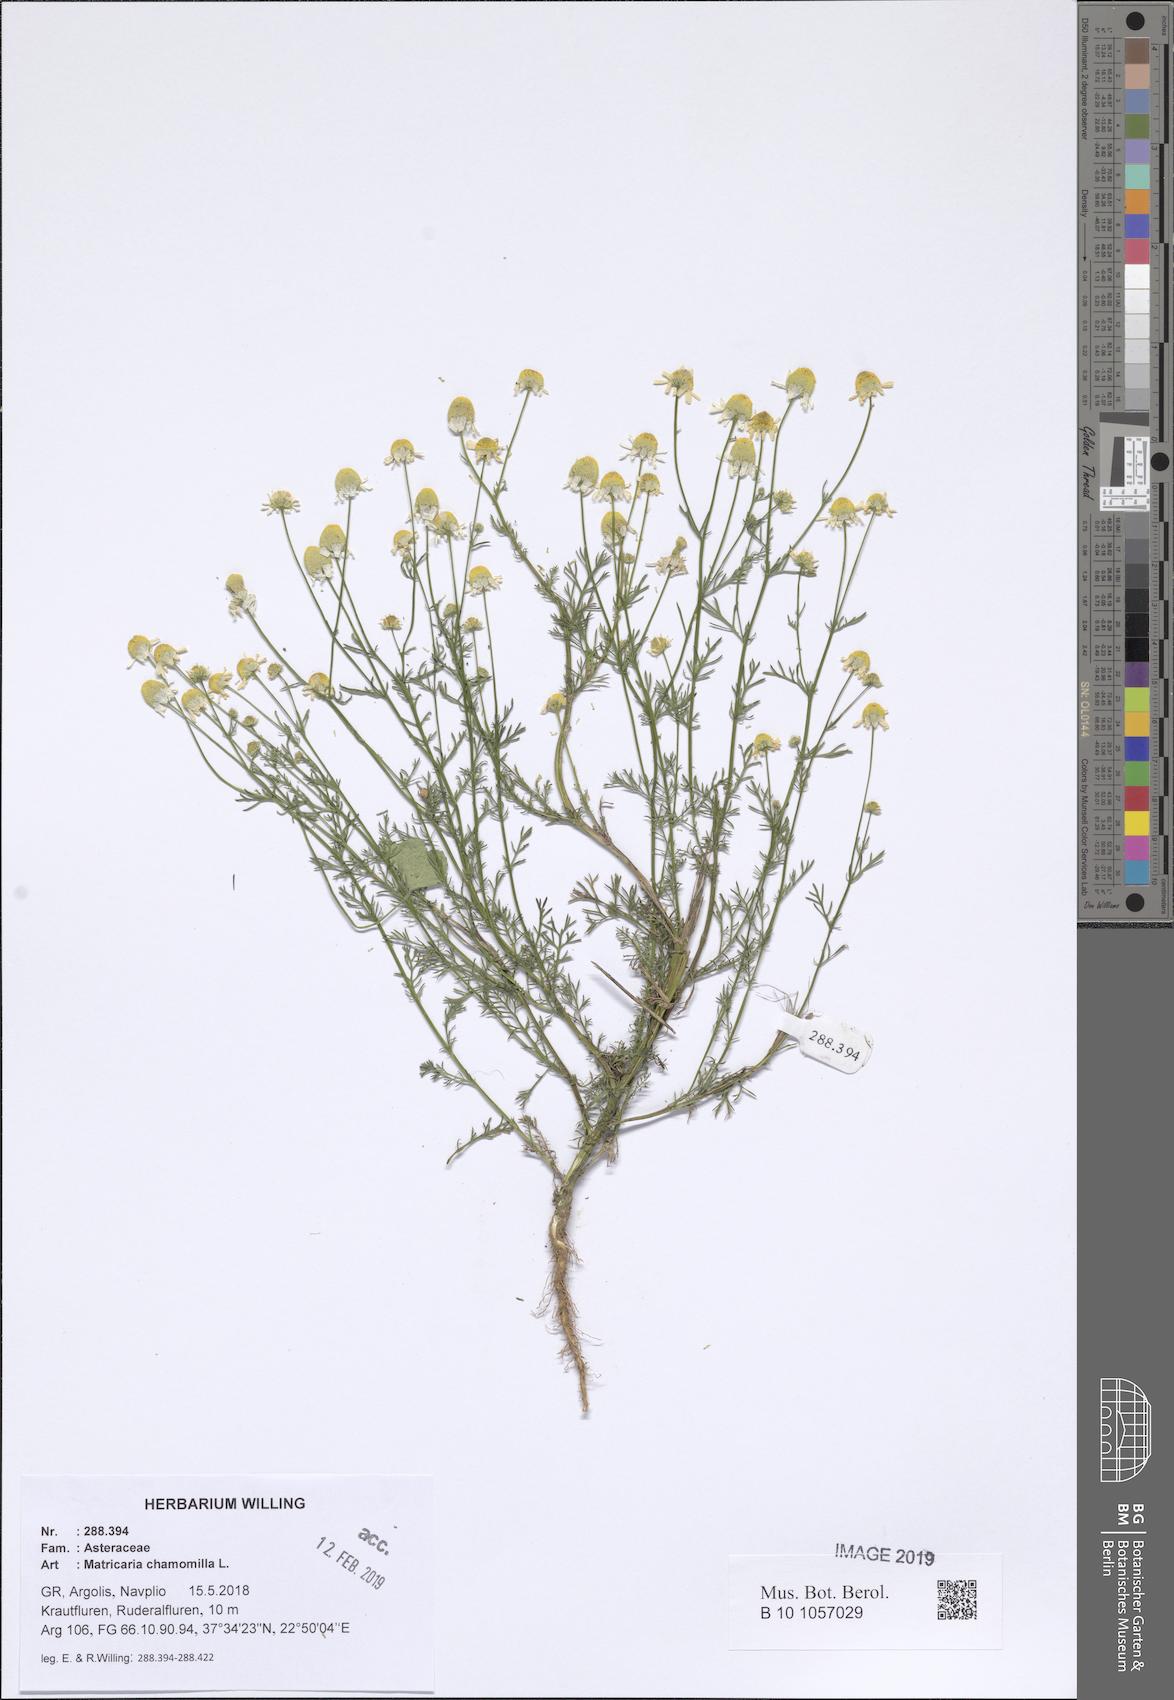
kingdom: Plantae
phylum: Tracheophyta
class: Magnoliopsida
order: Asterales
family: Asteraceae
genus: Matricaria
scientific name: Matricaria chamomilla
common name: Scented mayweed
